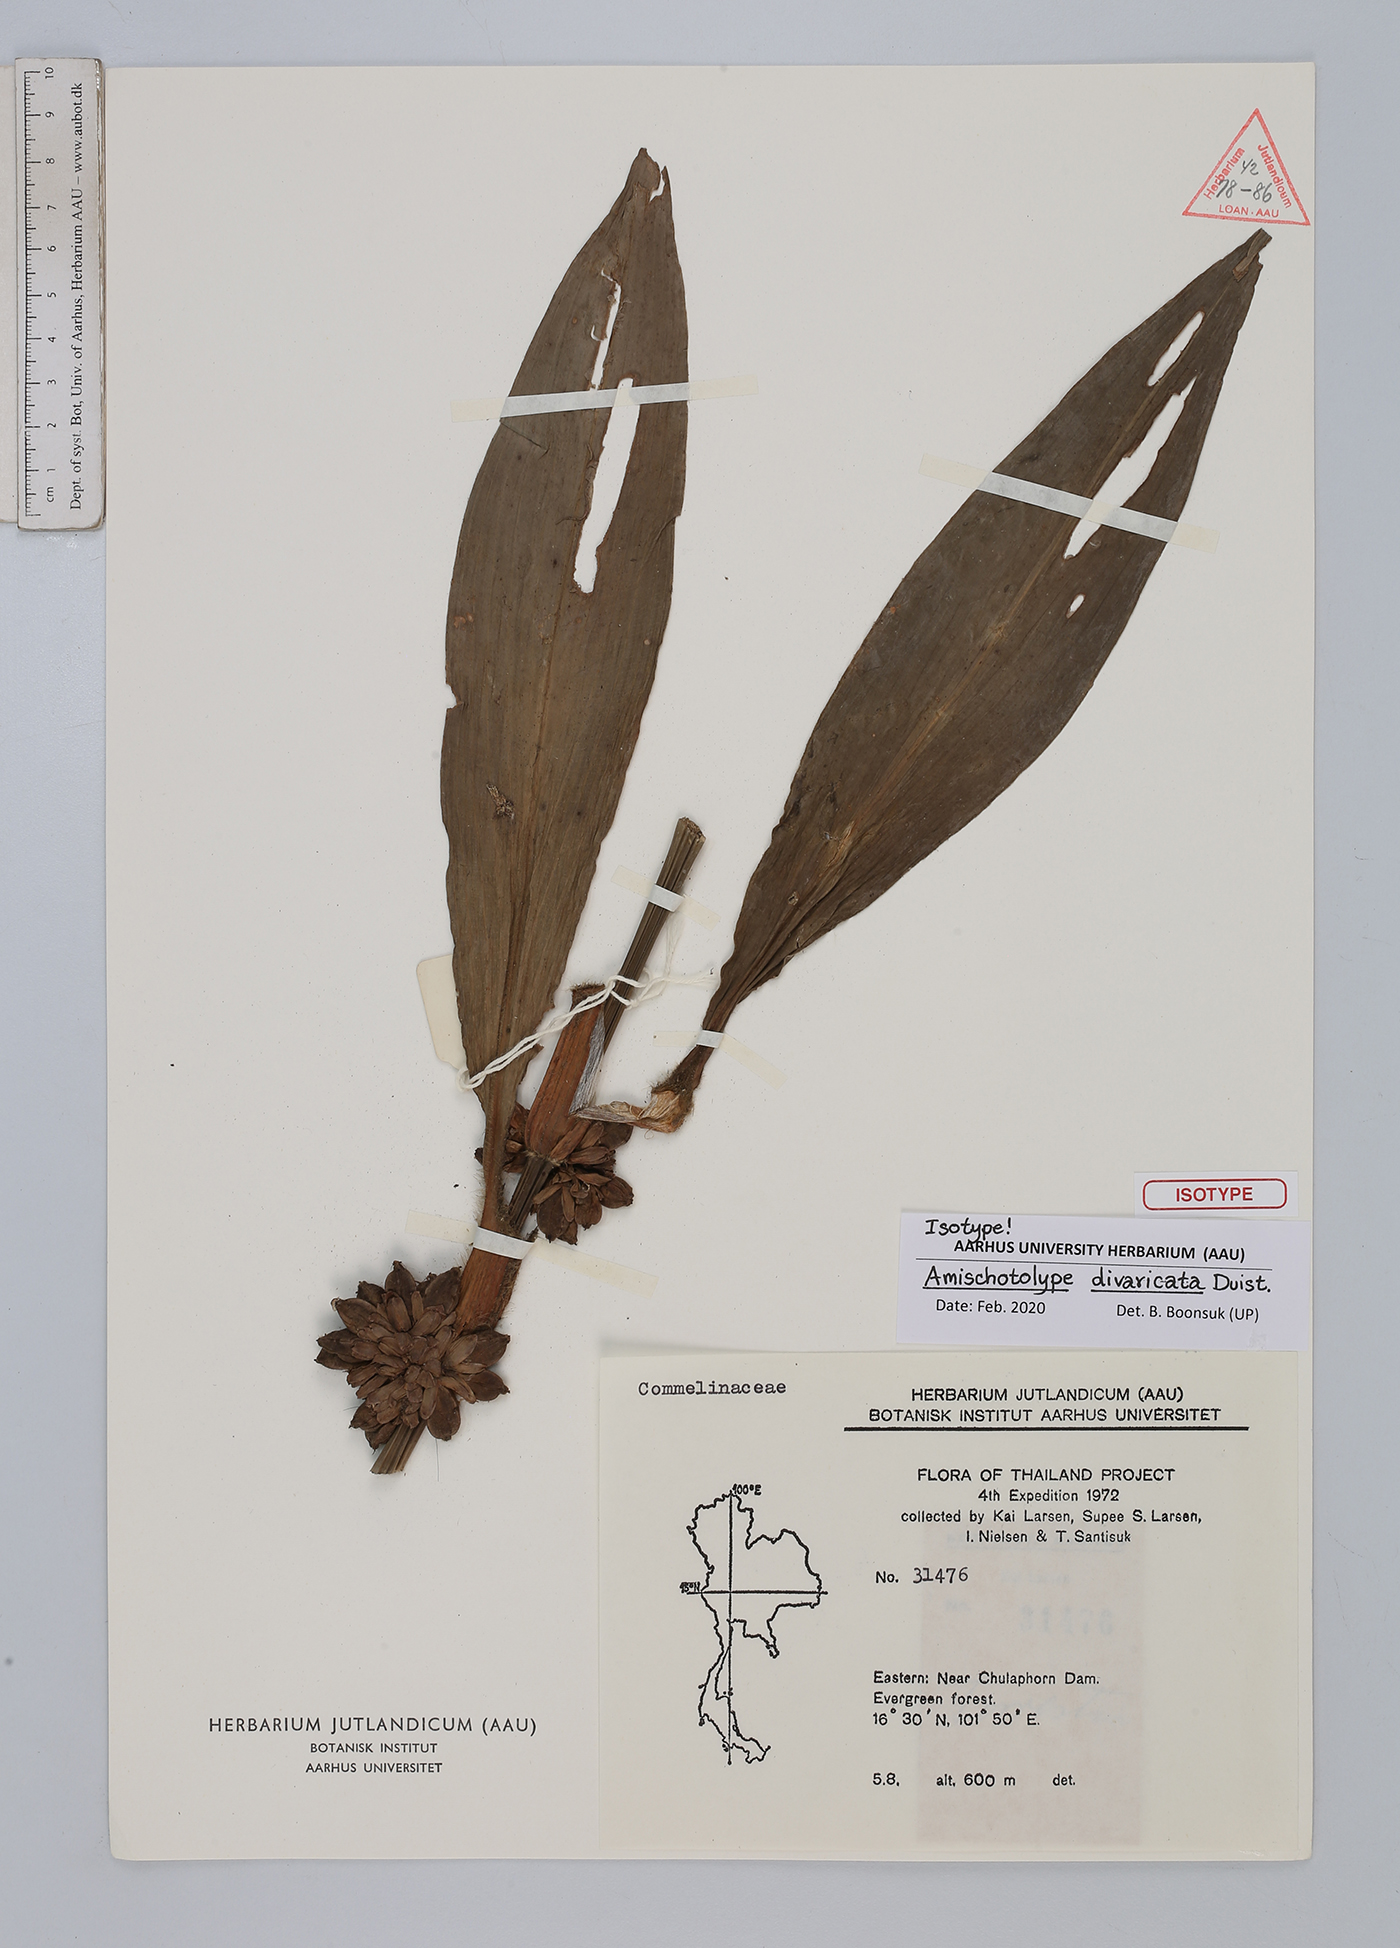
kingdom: Plantae
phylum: Tracheophyta
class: Liliopsida
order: Commelinales
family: Commelinaceae
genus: Amischotolype
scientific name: Amischotolype divaricata
